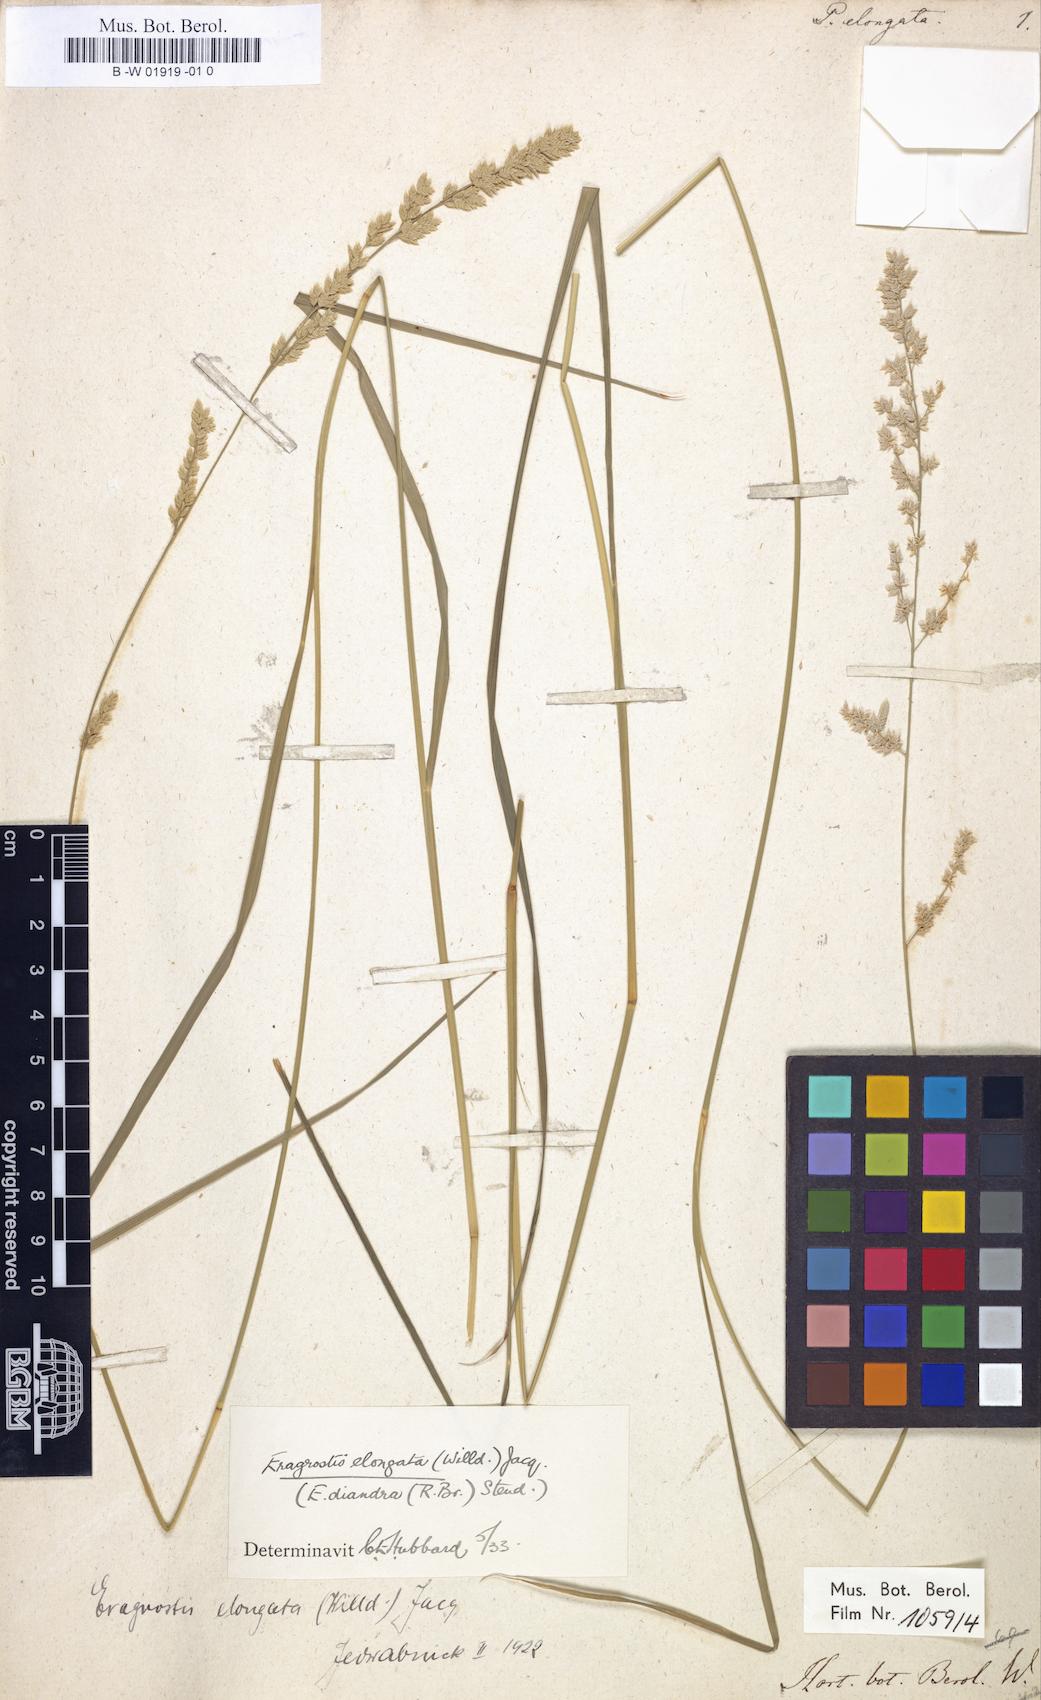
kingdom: Plantae
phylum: Tracheophyta
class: Liliopsida
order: Poales
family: Poaceae
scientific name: Poaceae
